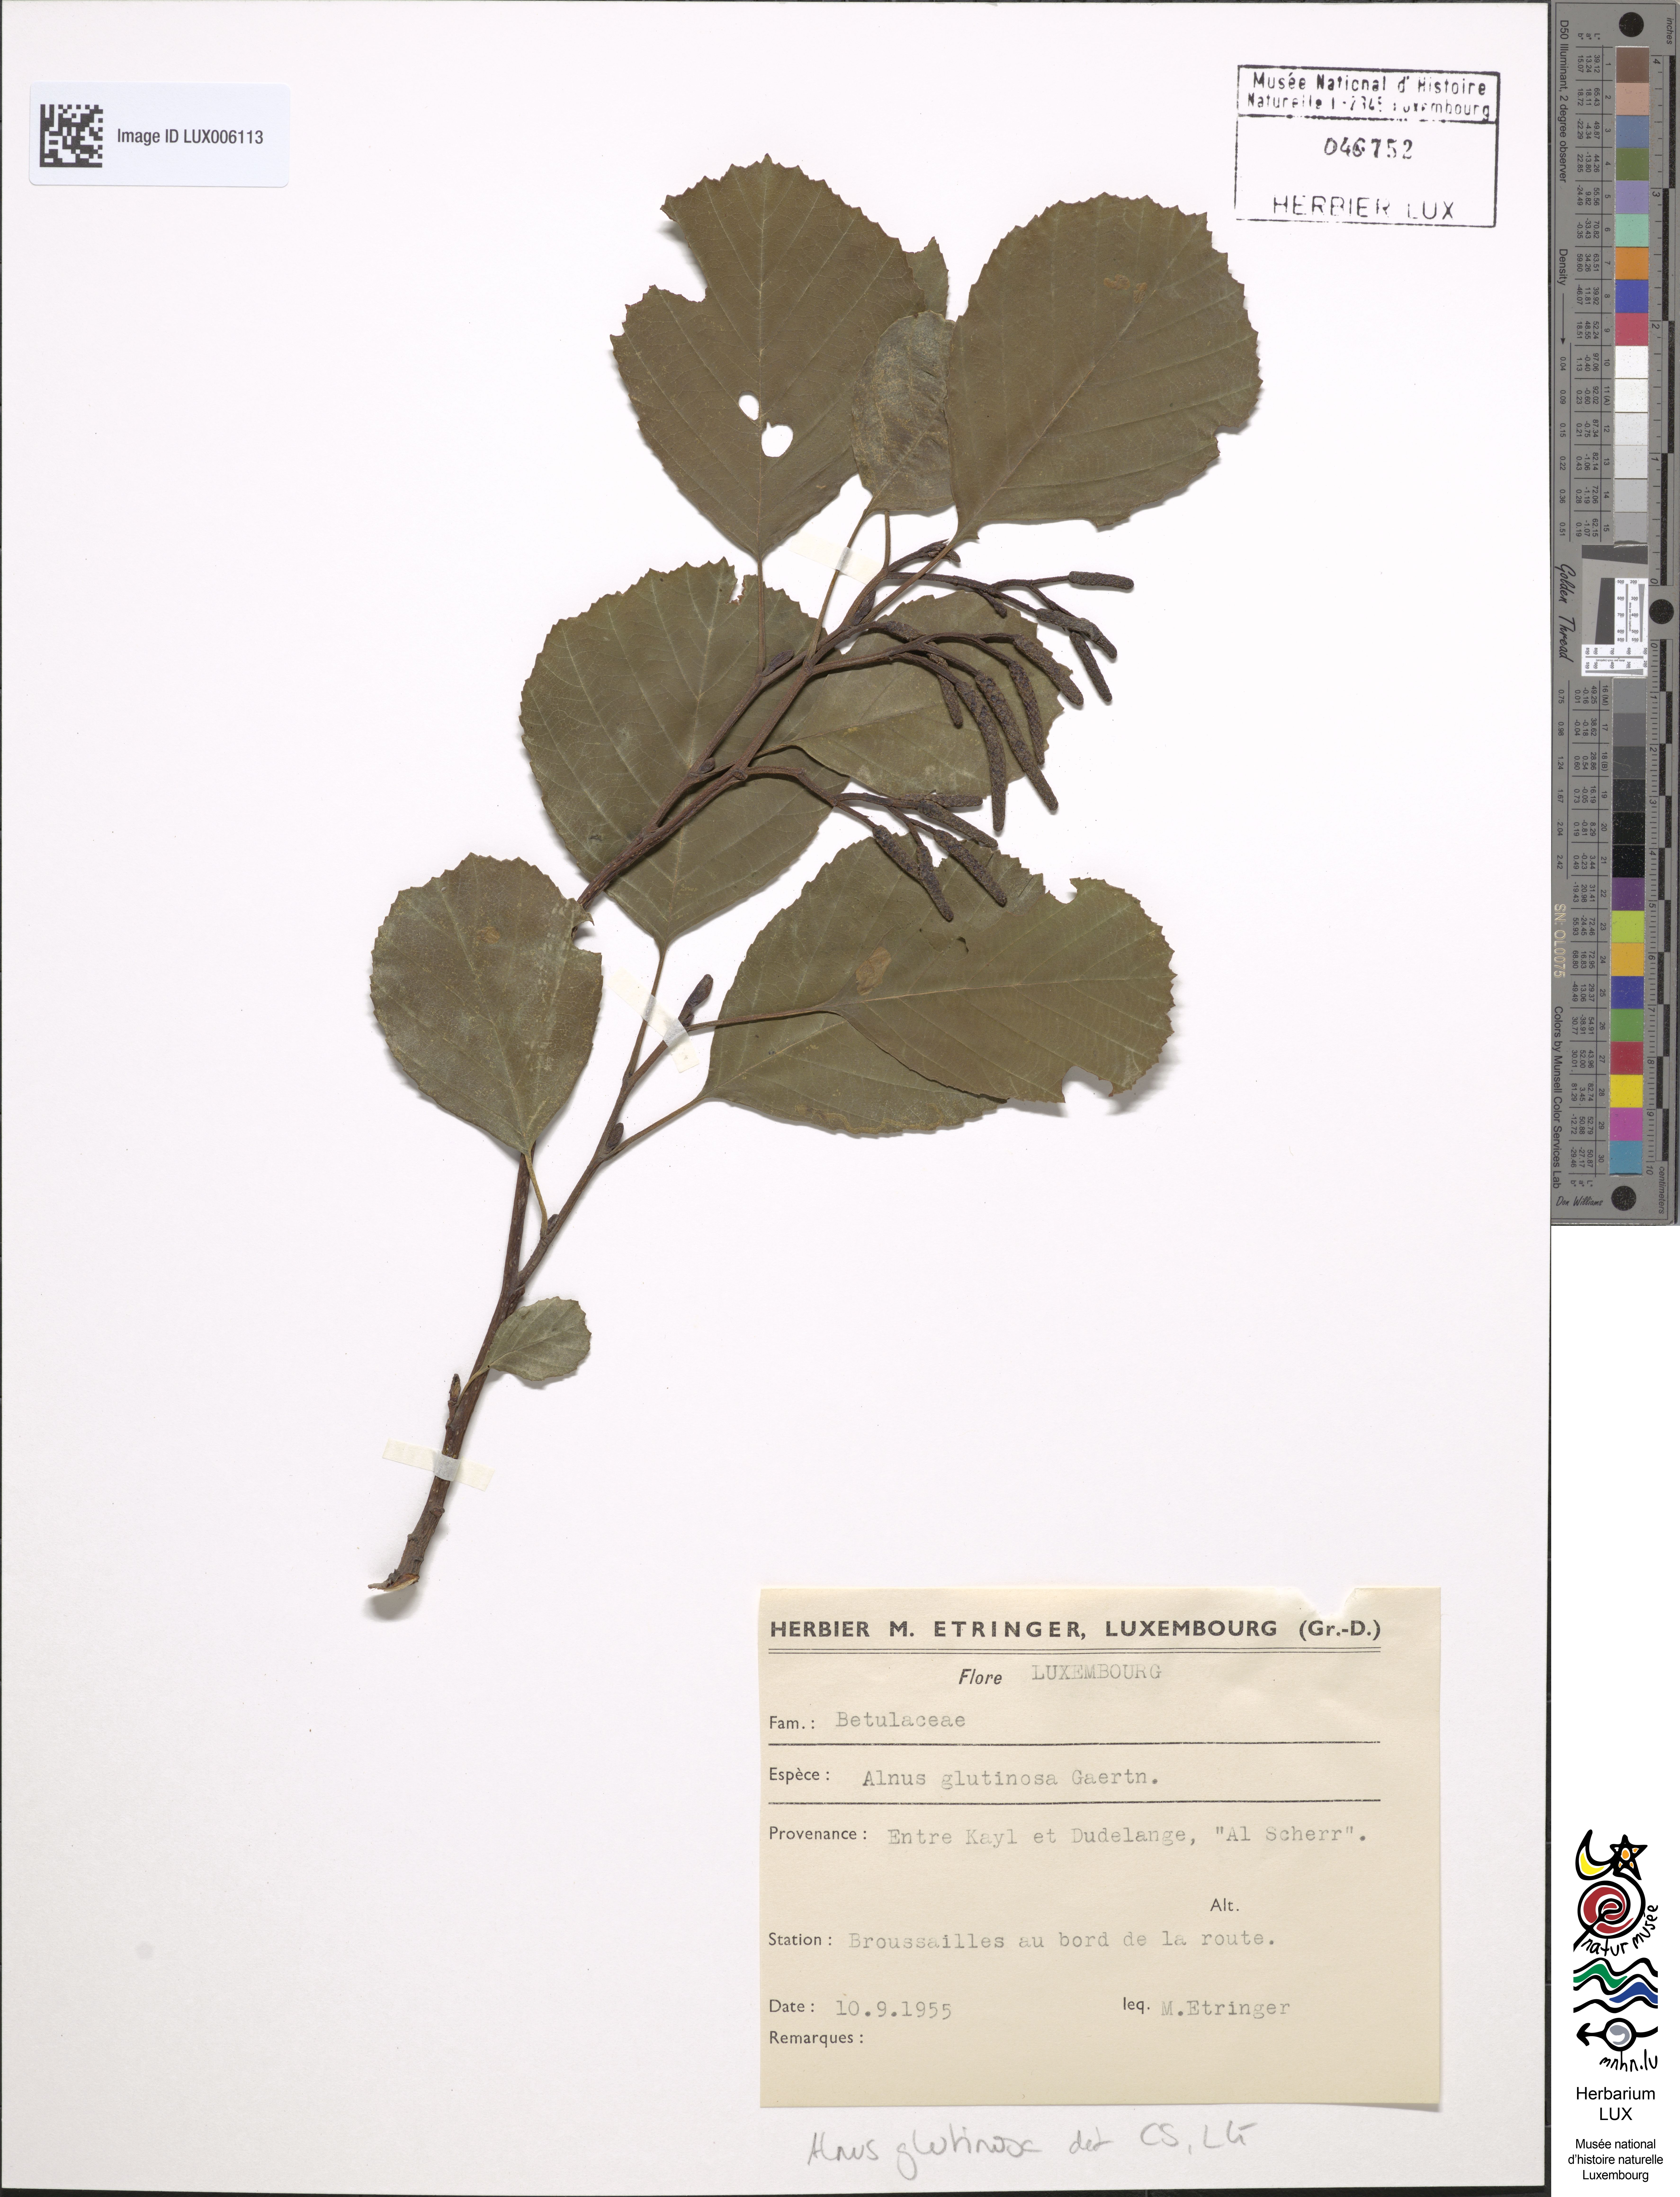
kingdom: Plantae
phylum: Tracheophyta
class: Magnoliopsida
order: Fagales
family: Betulaceae
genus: Alnus
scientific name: Alnus glutinosa
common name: Black alder
